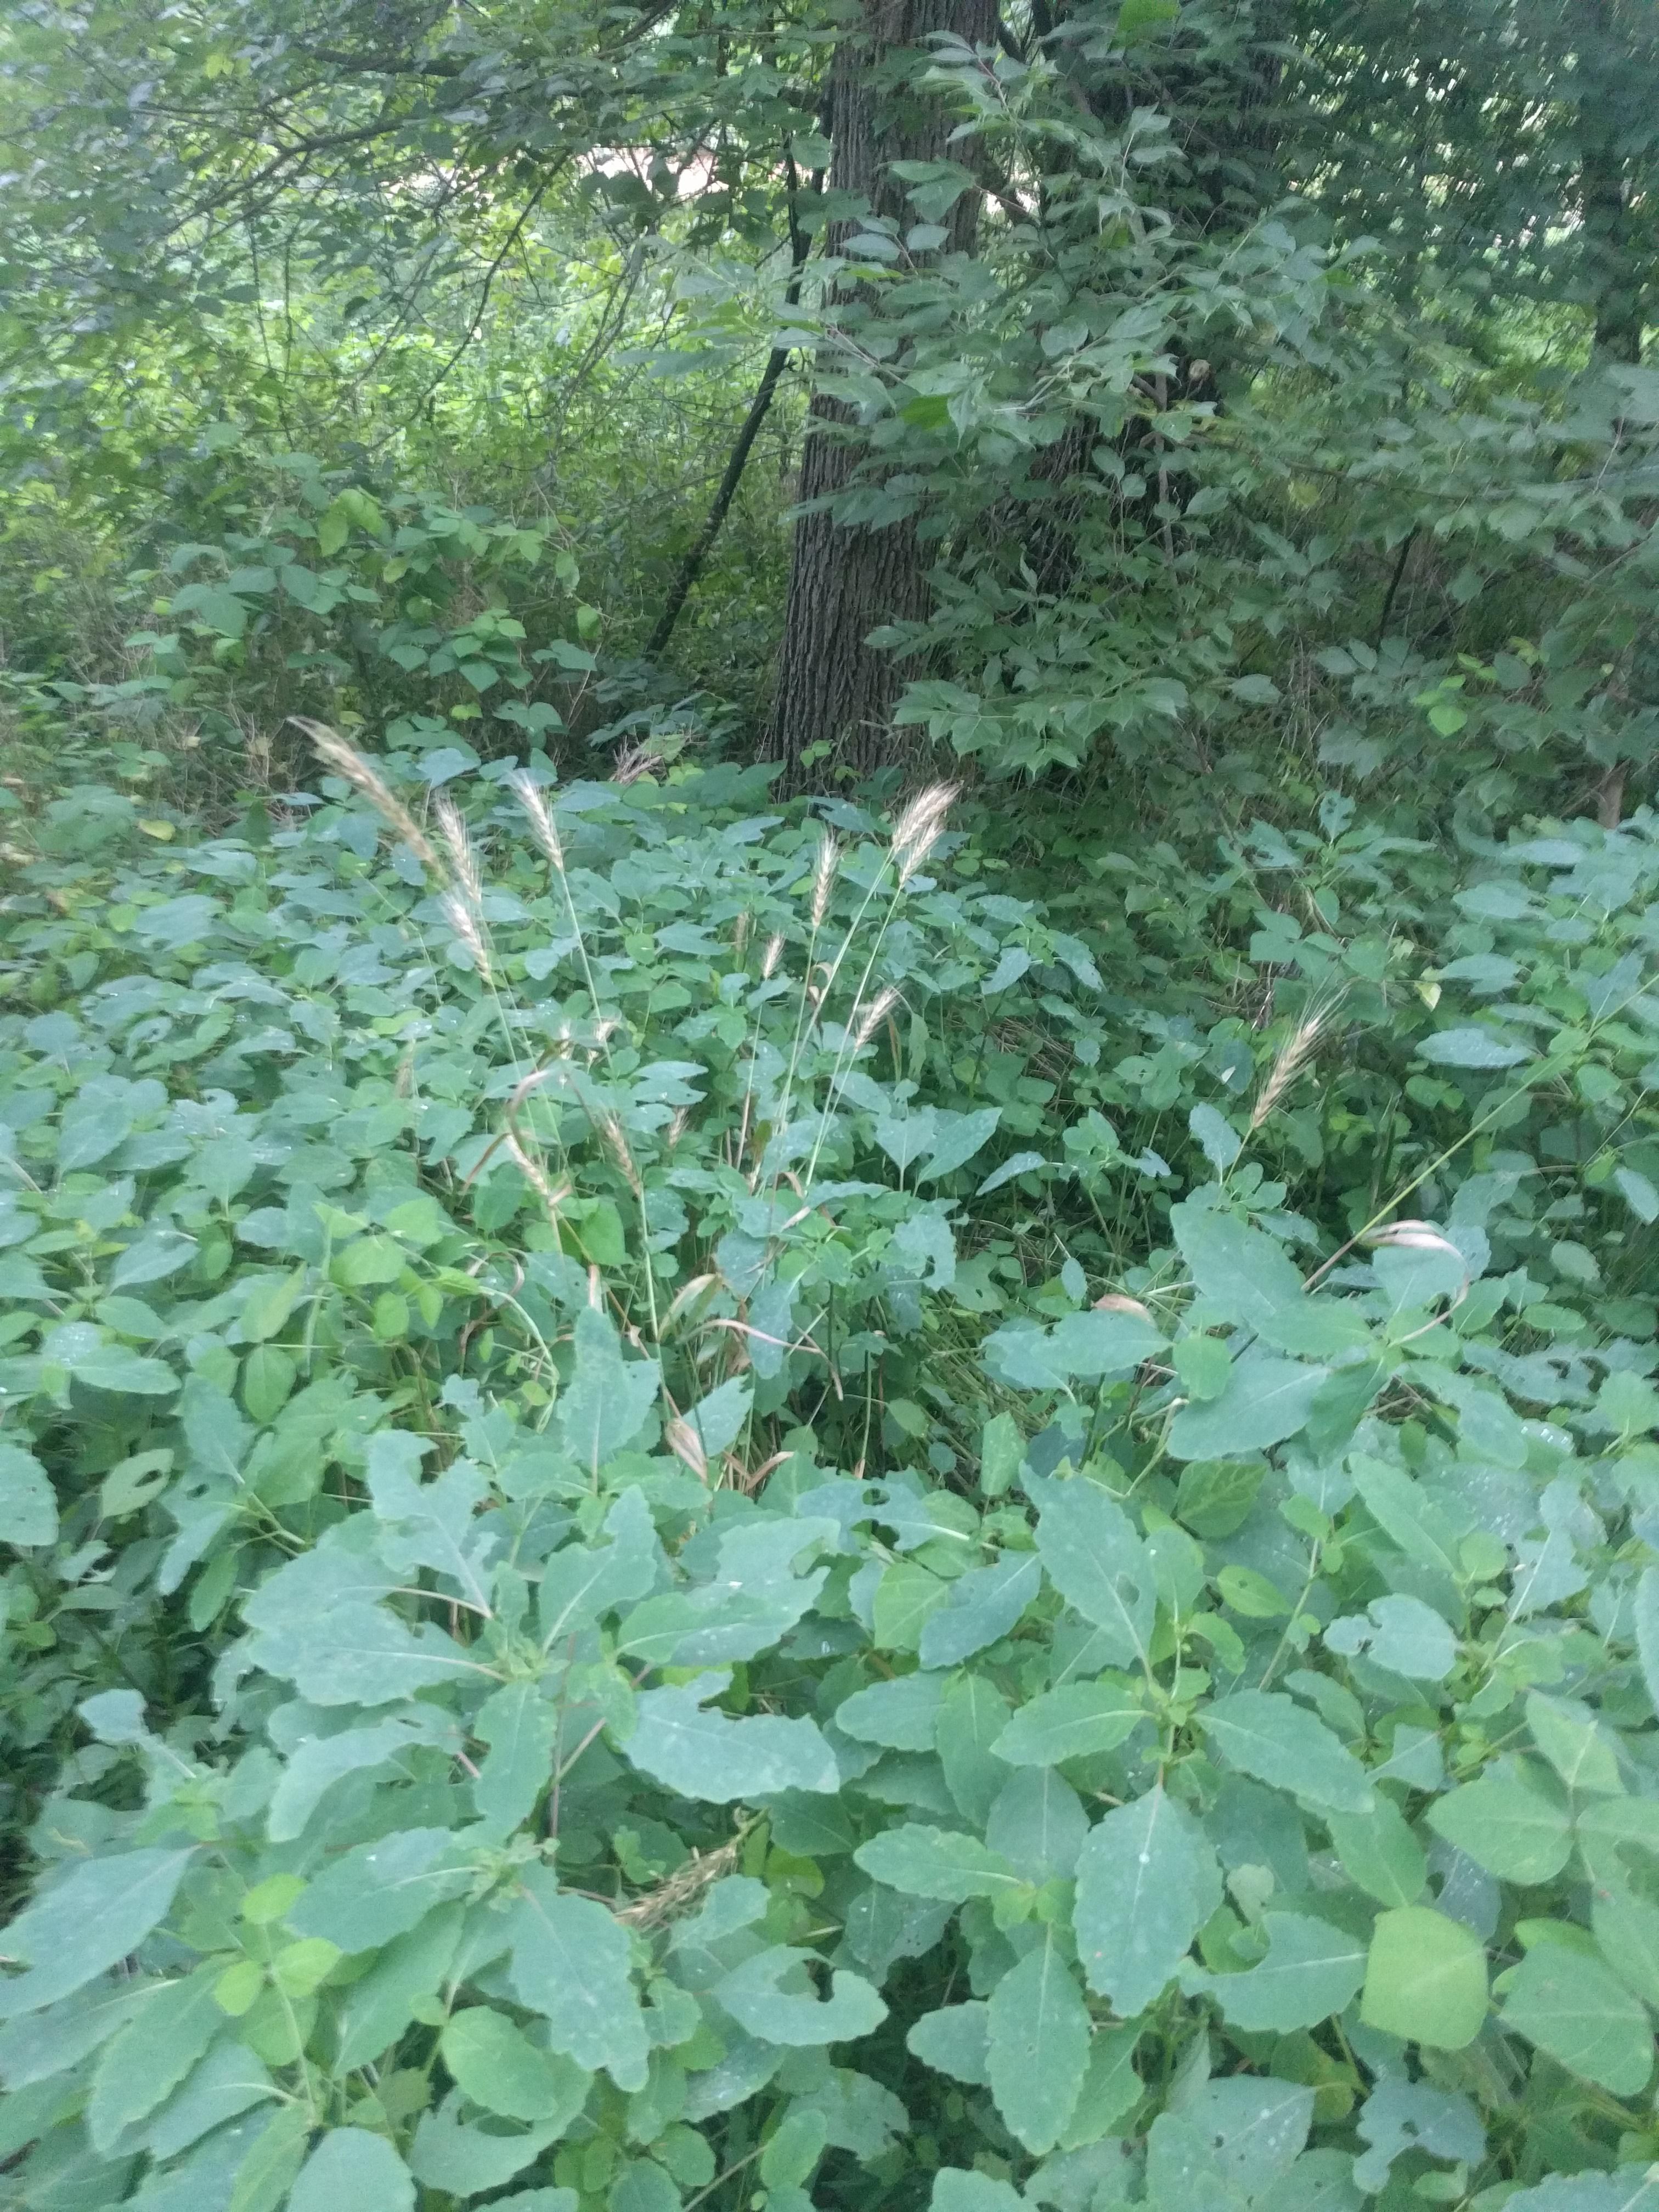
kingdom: Plantae
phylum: Tracheophyta
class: Liliopsida
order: Poales
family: Poaceae
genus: Elymus
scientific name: Elymus virginicus
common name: Common eastern wildrye
